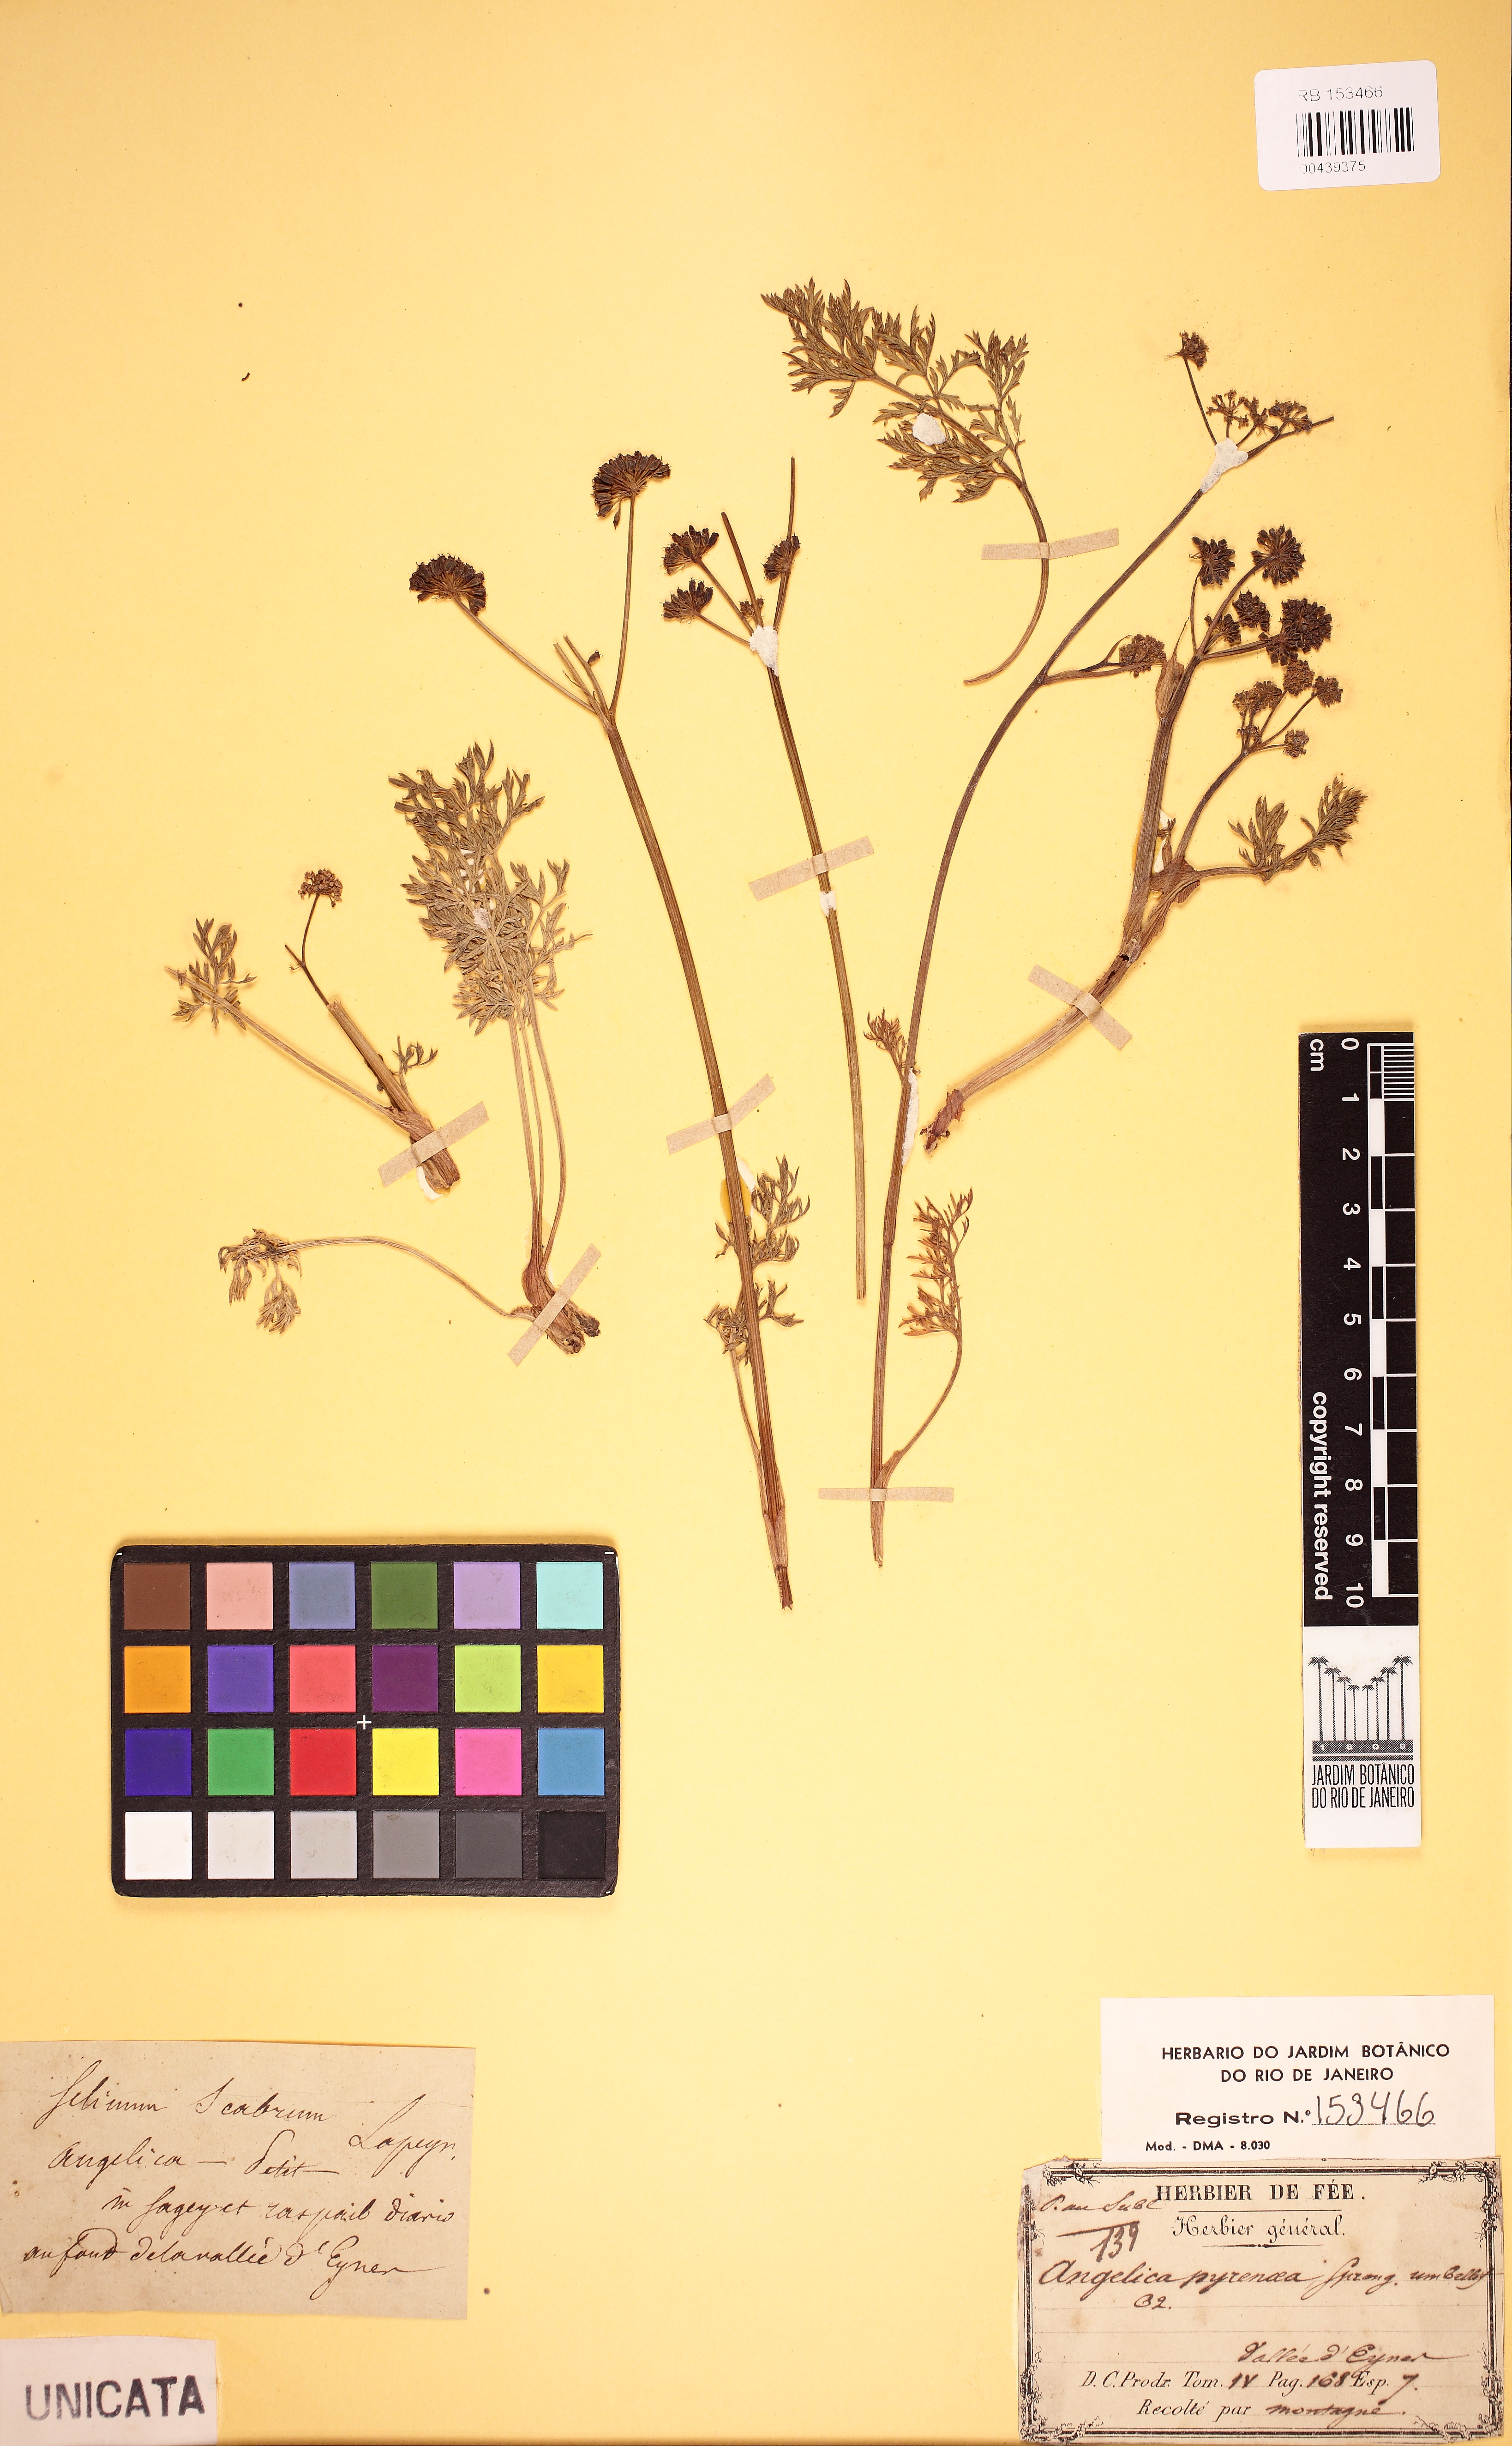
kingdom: Plantae
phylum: Tracheophyta
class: Magnoliopsida
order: Apiales
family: Apiaceae
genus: Epikeros
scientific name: Epikeros pyrenaeus
